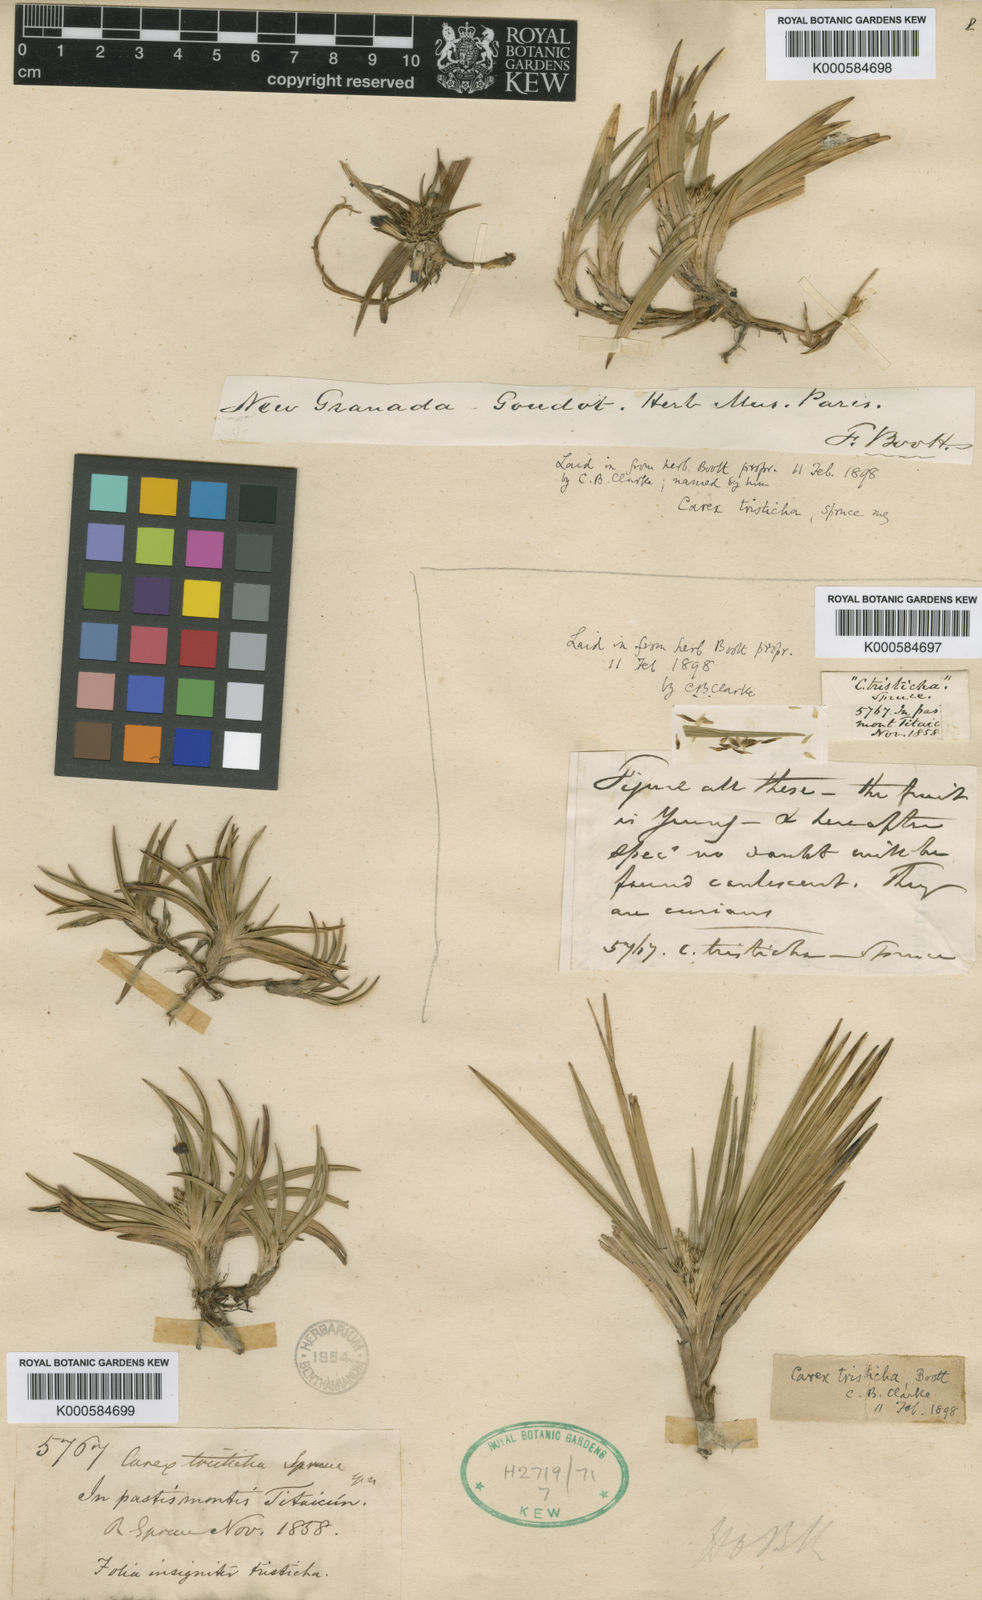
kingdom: Plantae
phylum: Tracheophyta
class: Liliopsida
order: Poales
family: Cyperaceae
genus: Carex
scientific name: Carex tamana
